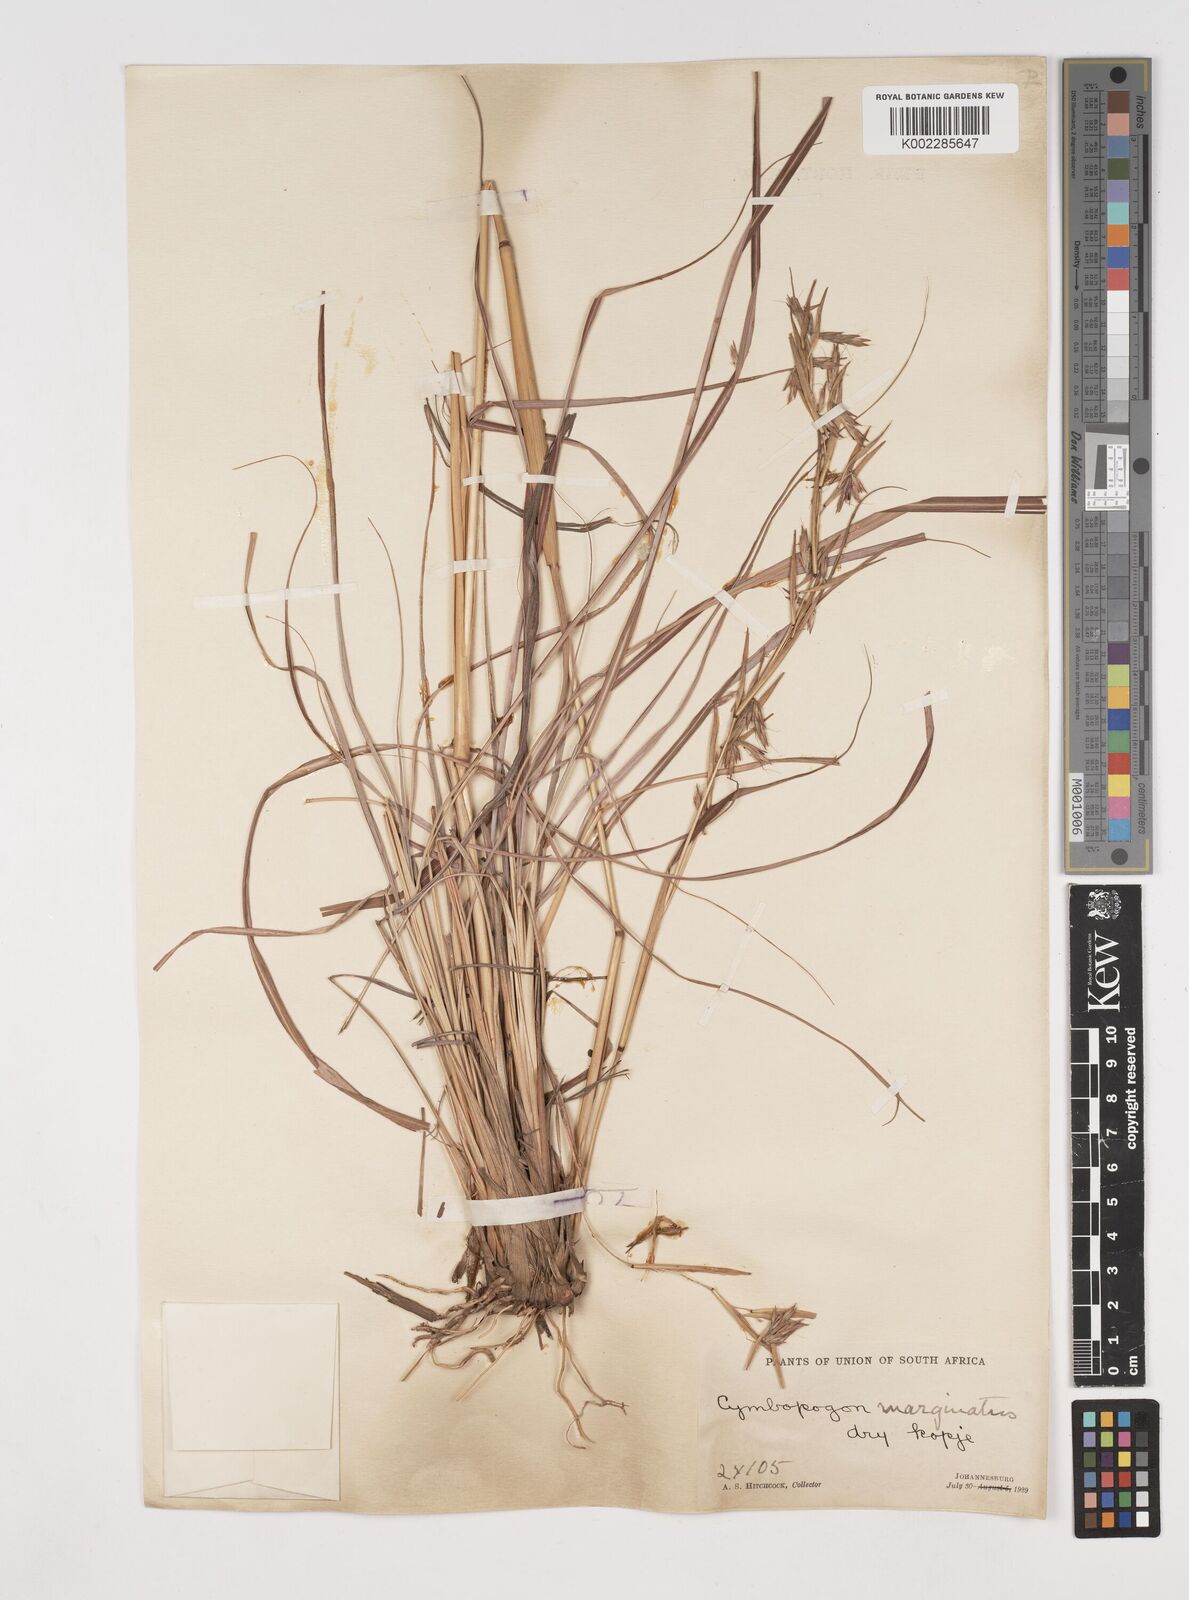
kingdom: Plantae
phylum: Tracheophyta
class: Liliopsida
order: Poales
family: Poaceae
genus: Cymbopogon
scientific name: Cymbopogon marginatus
